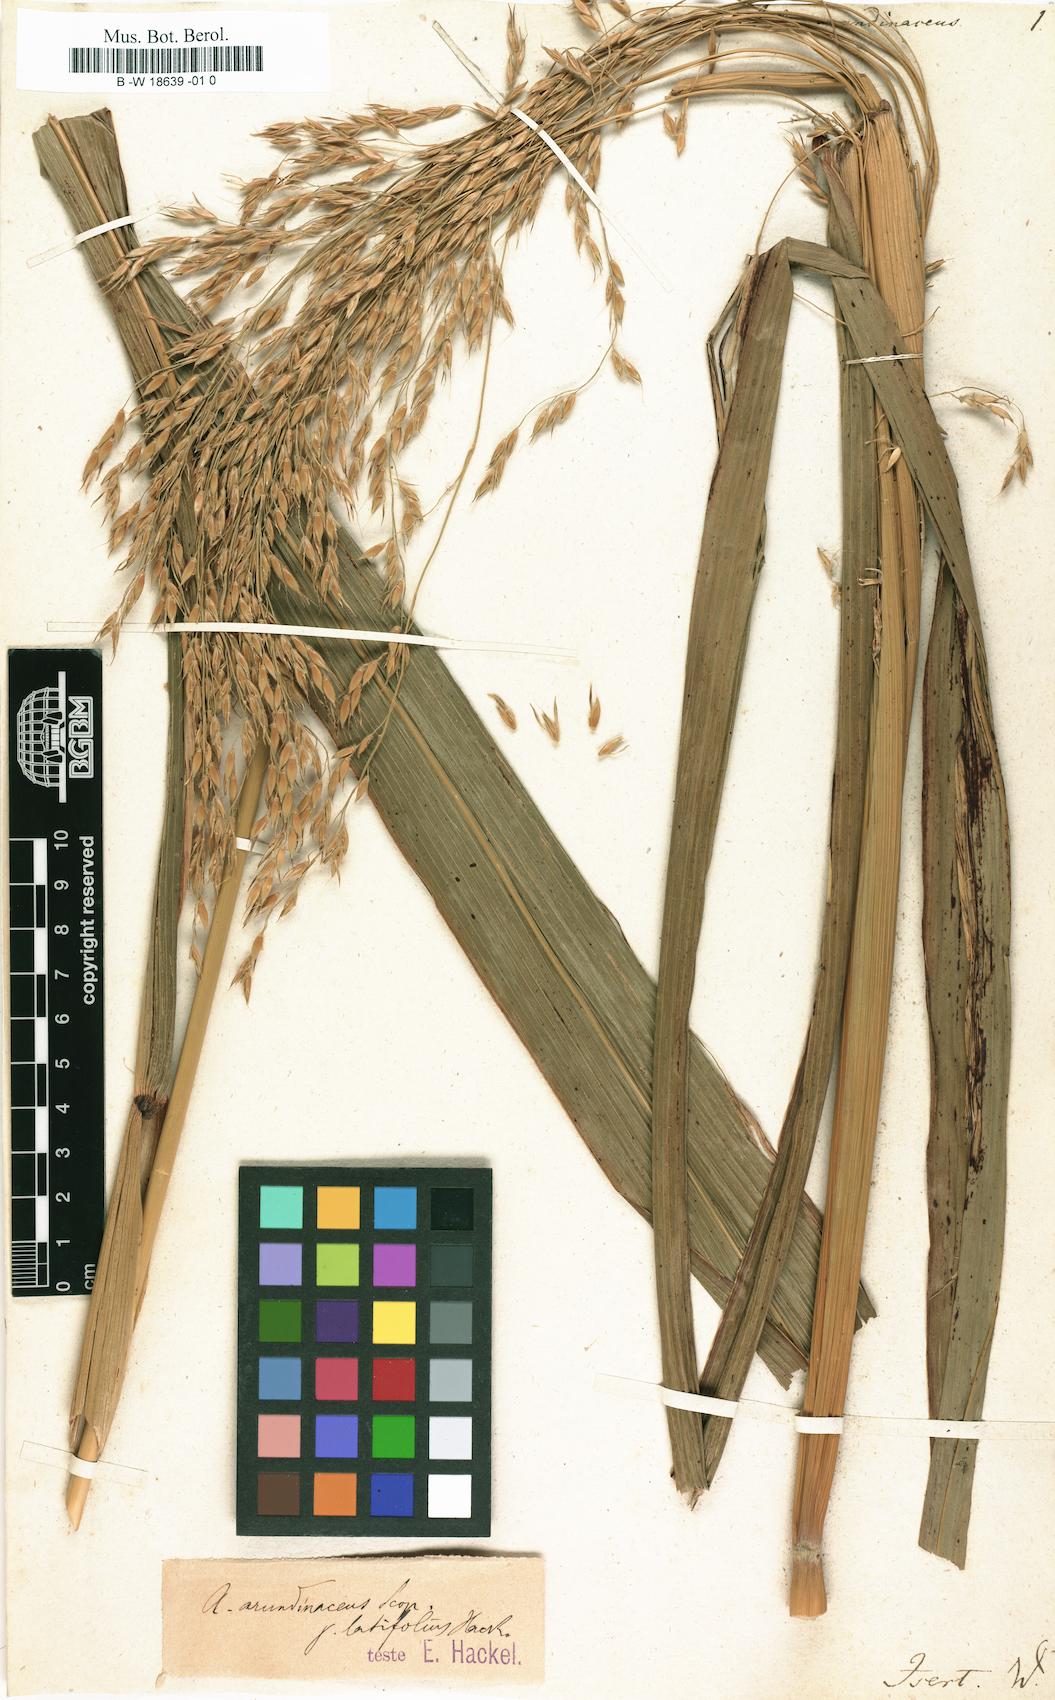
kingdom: Plantae
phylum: Tracheophyta
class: Liliopsida
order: Poales
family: Poaceae
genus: Capeochloa
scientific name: Capeochloa arundinacea
